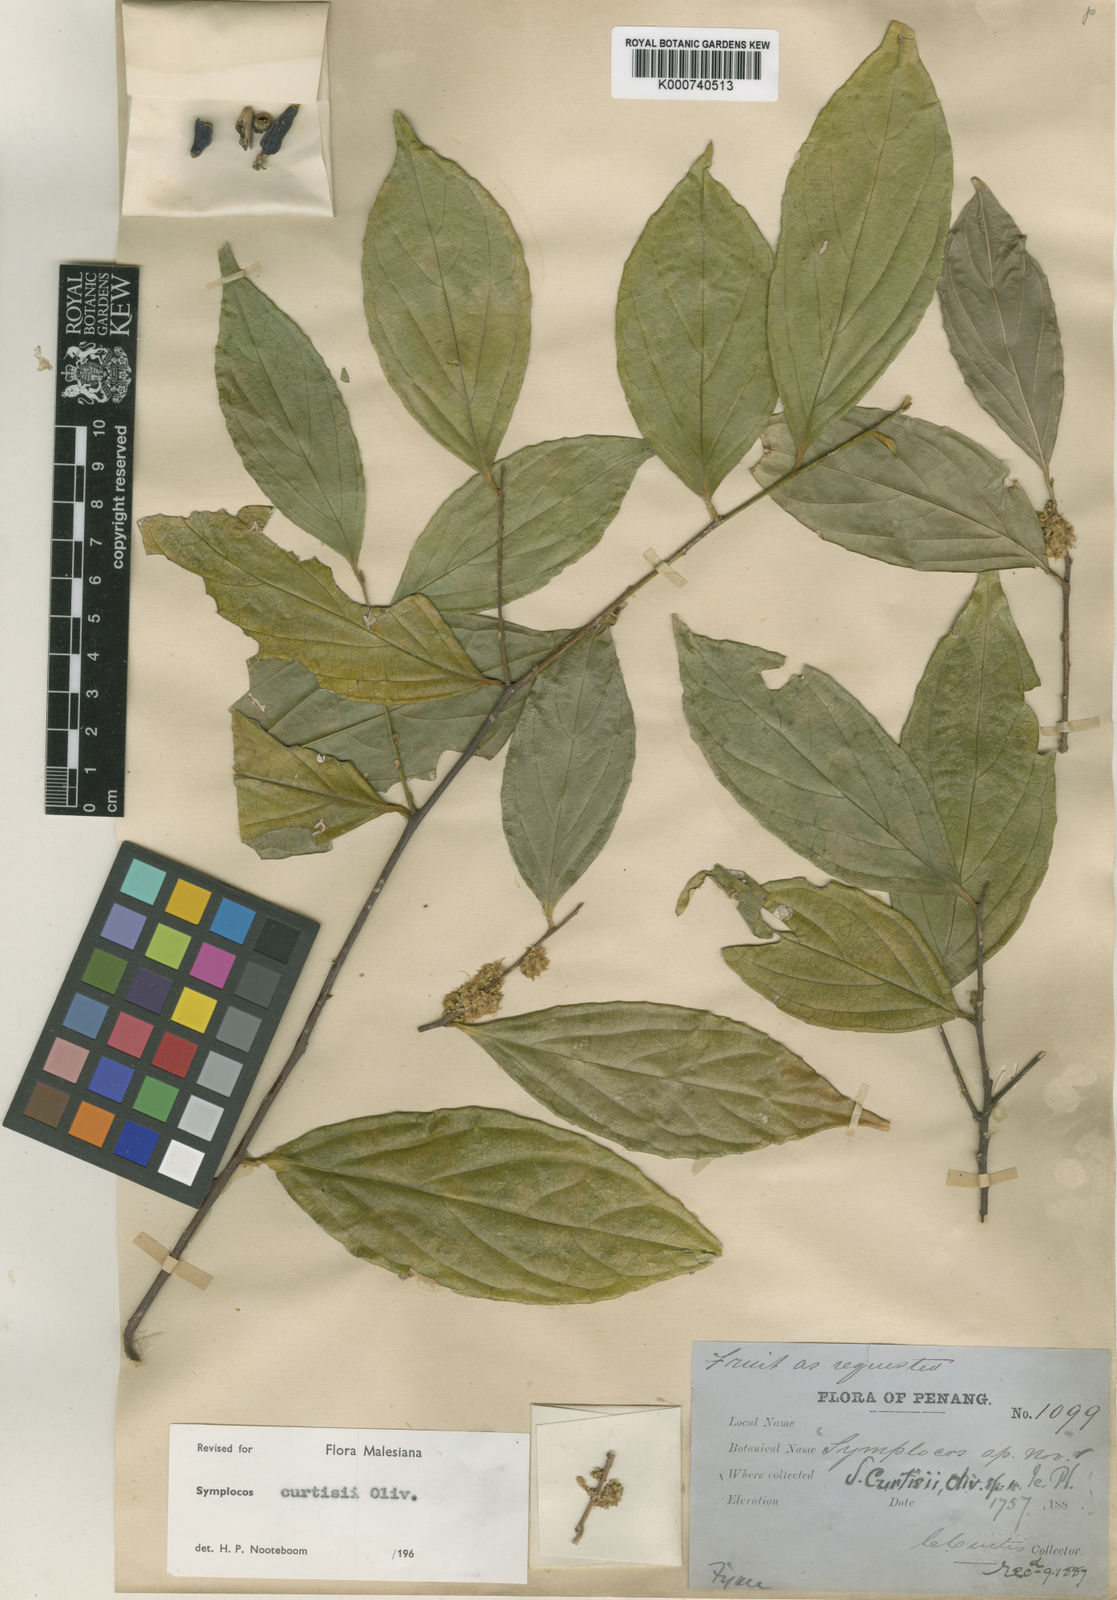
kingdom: Plantae
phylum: Tracheophyta
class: Magnoliopsida
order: Ericales
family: Symplocaceae
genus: Symplocos
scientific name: Symplocos crassipes
